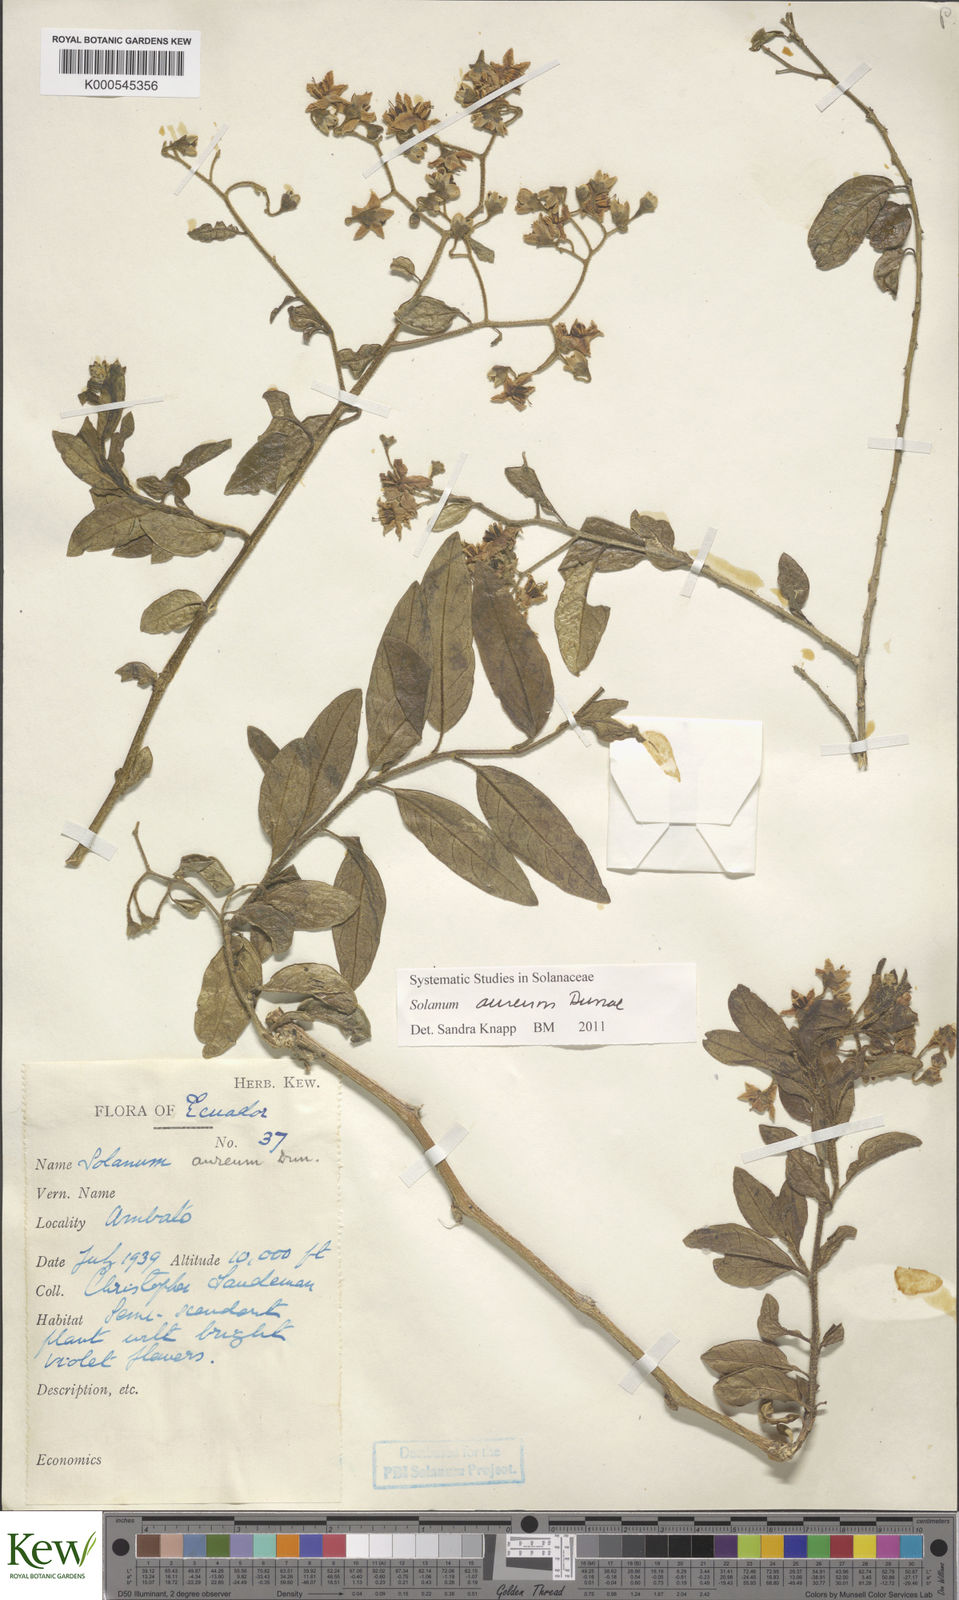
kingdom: Plantae
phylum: Tracheophyta
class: Magnoliopsida
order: Solanales
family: Solanaceae
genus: Solanum
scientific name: Solanum aureum
